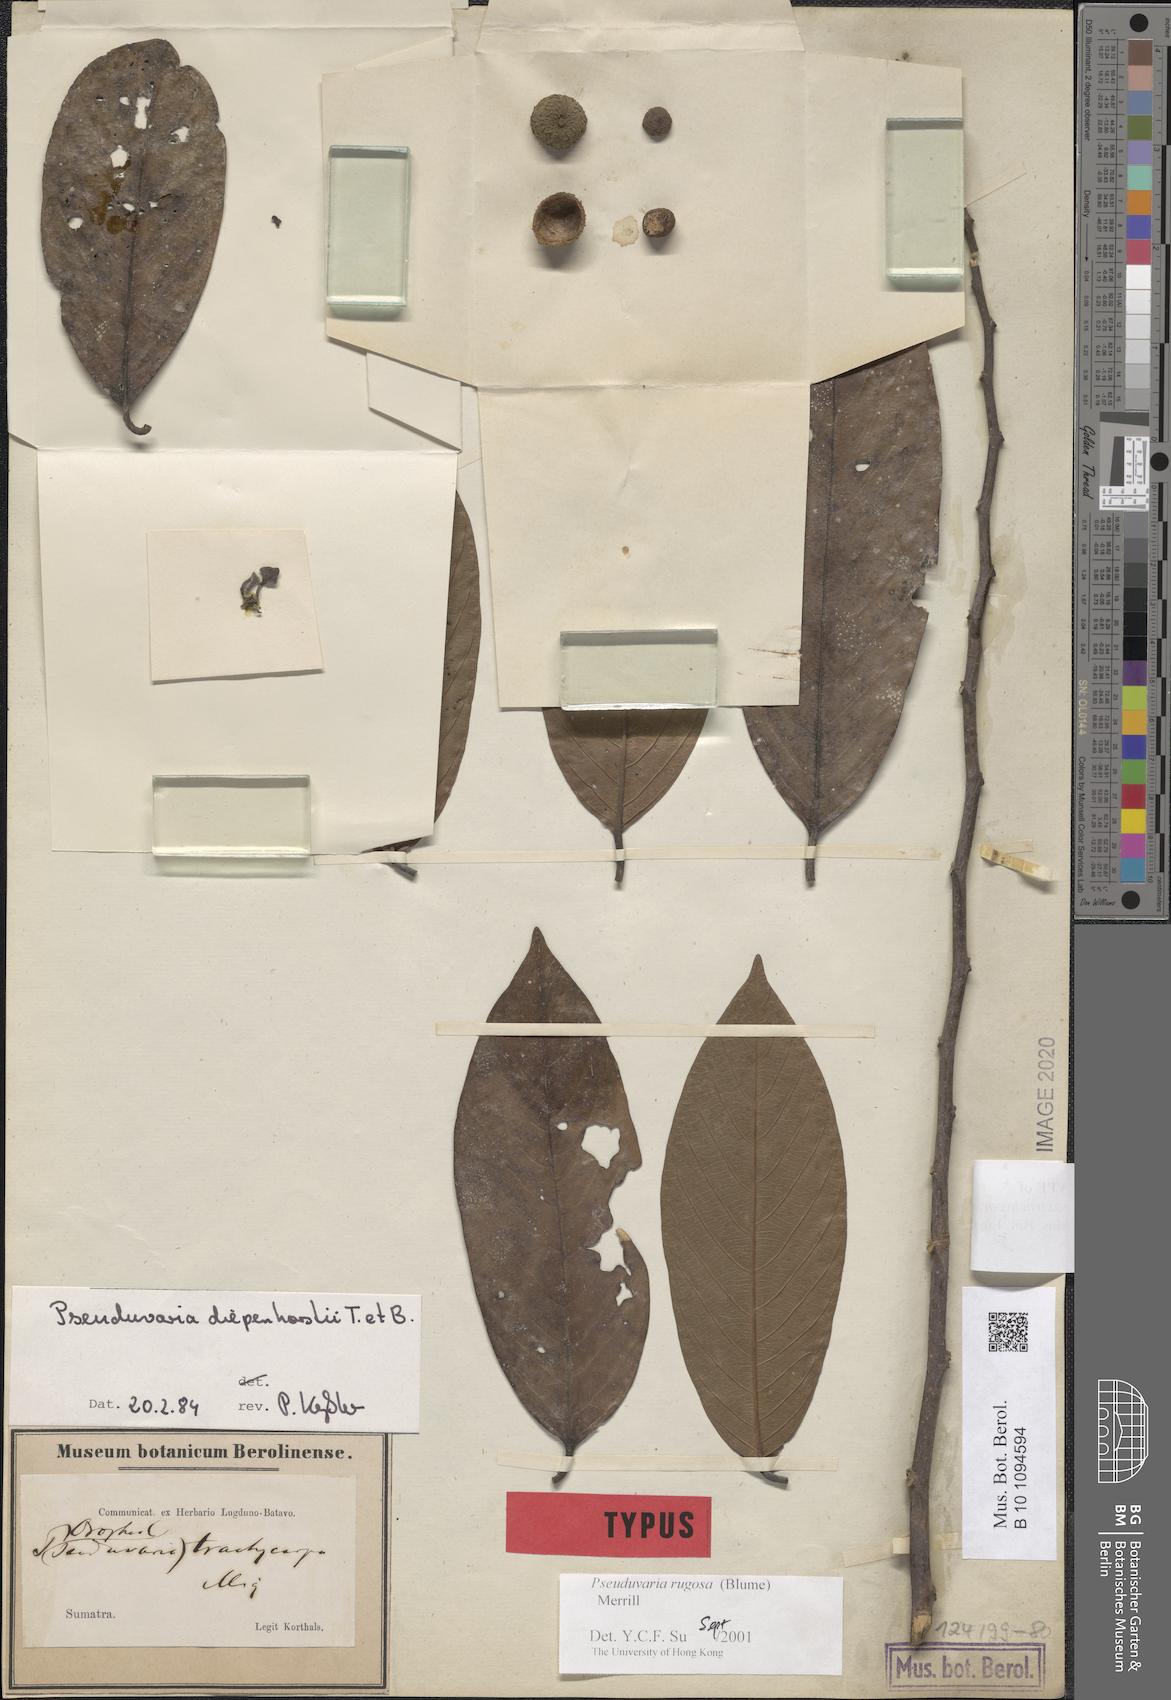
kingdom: Plantae
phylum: Tracheophyta
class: Magnoliopsida
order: Magnoliales
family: Annonaceae
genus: Pseuduvaria
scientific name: Pseuduvaria rugosa
